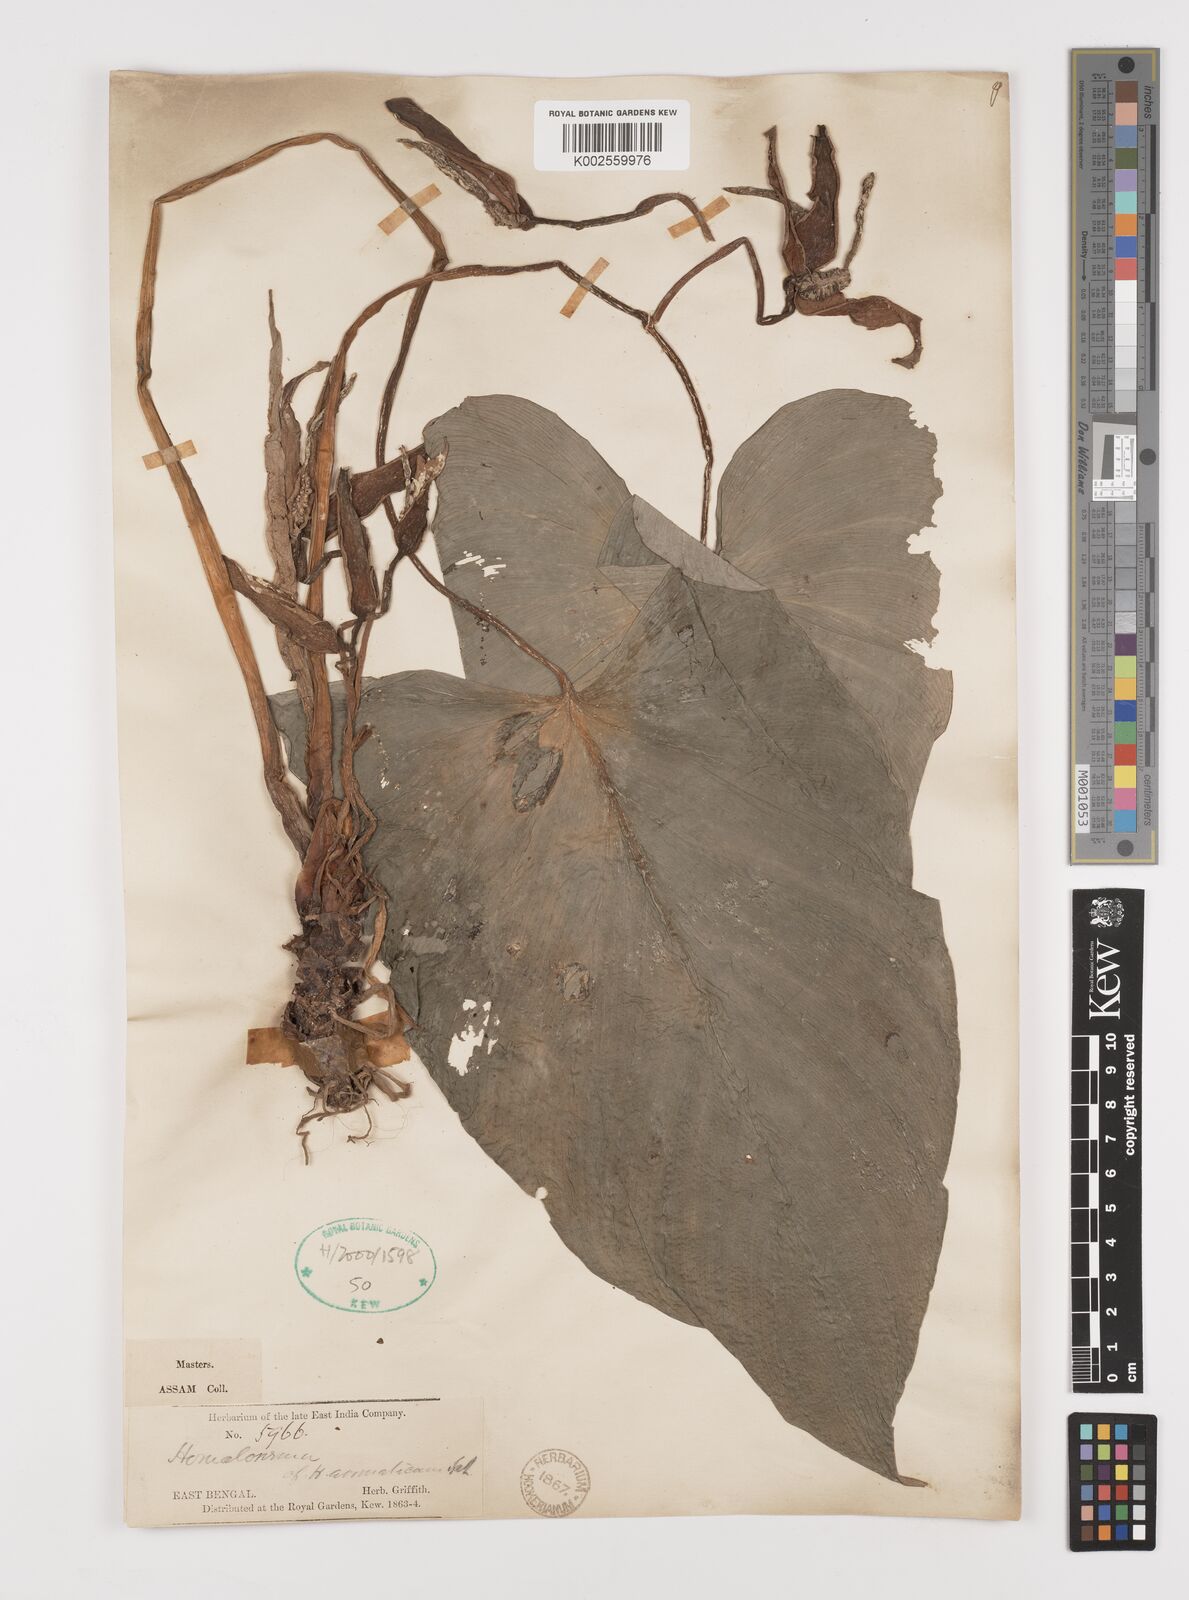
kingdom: Plantae
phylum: Tracheophyta
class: Liliopsida
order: Alismatales
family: Araceae
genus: Homalomena
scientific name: Homalomena aromatica
